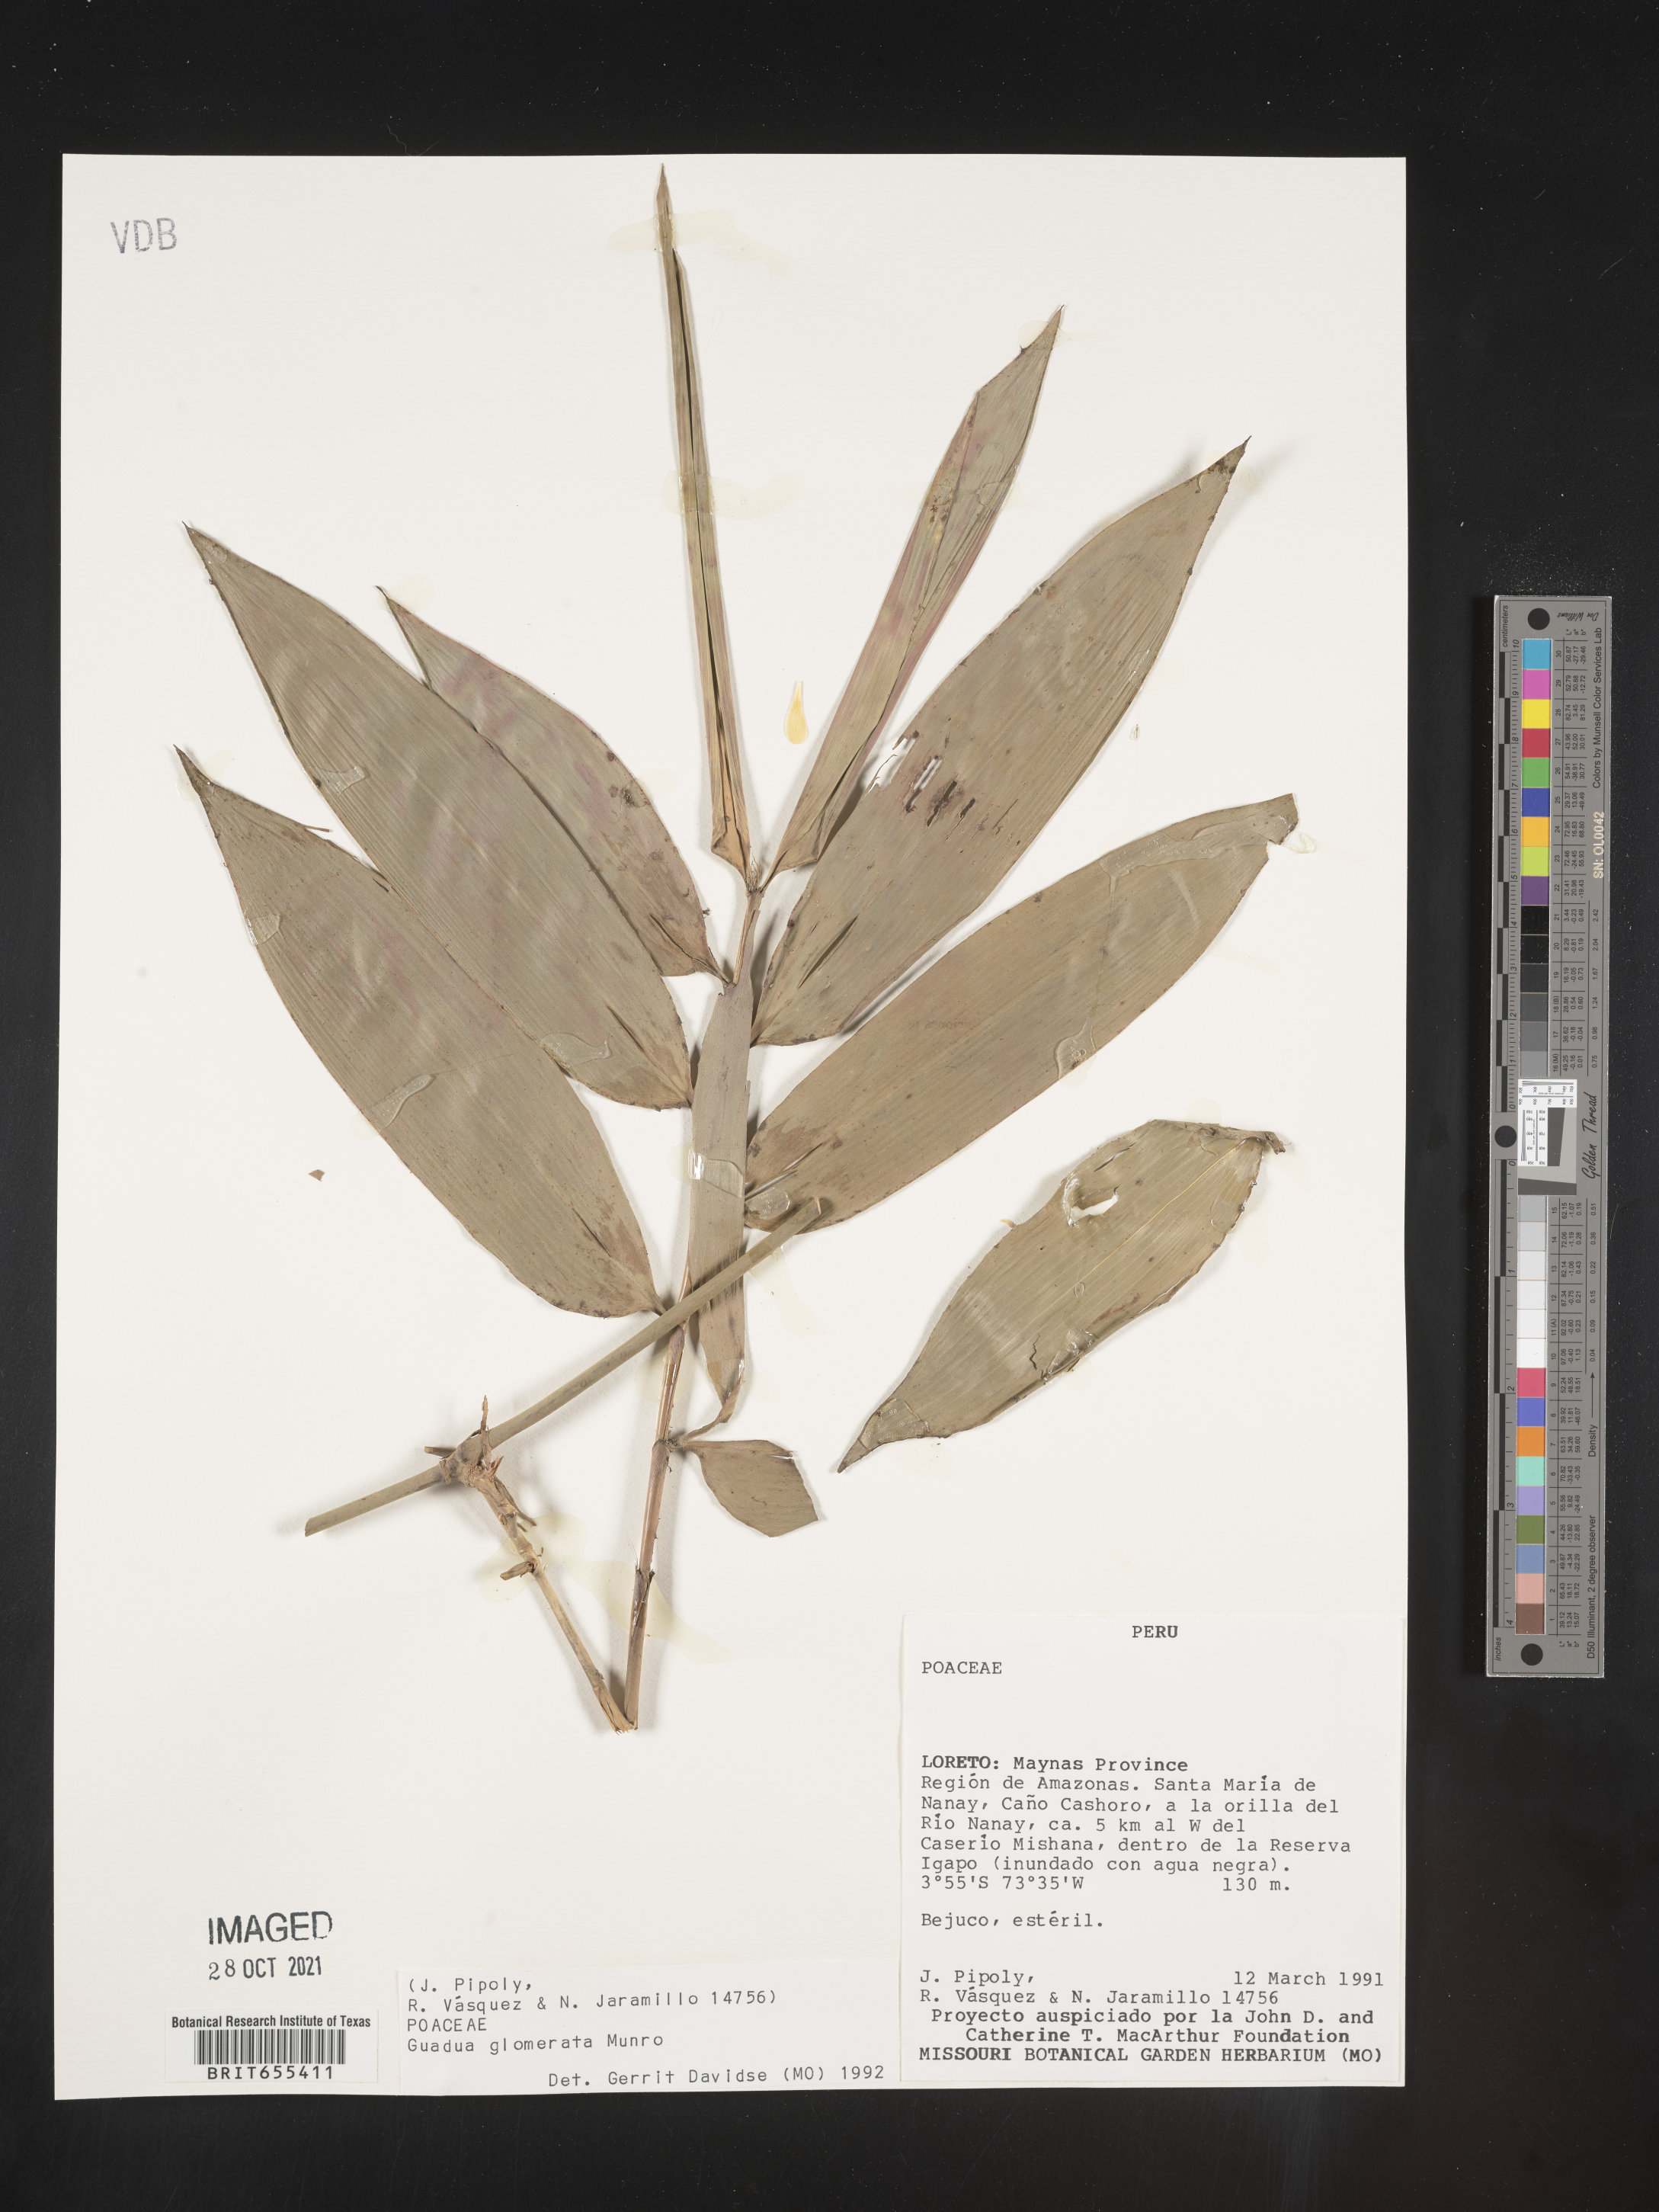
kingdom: Plantae
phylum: Tracheophyta
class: Liliopsida
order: Poales
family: Poaceae
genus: Guadua
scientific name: Guadua
